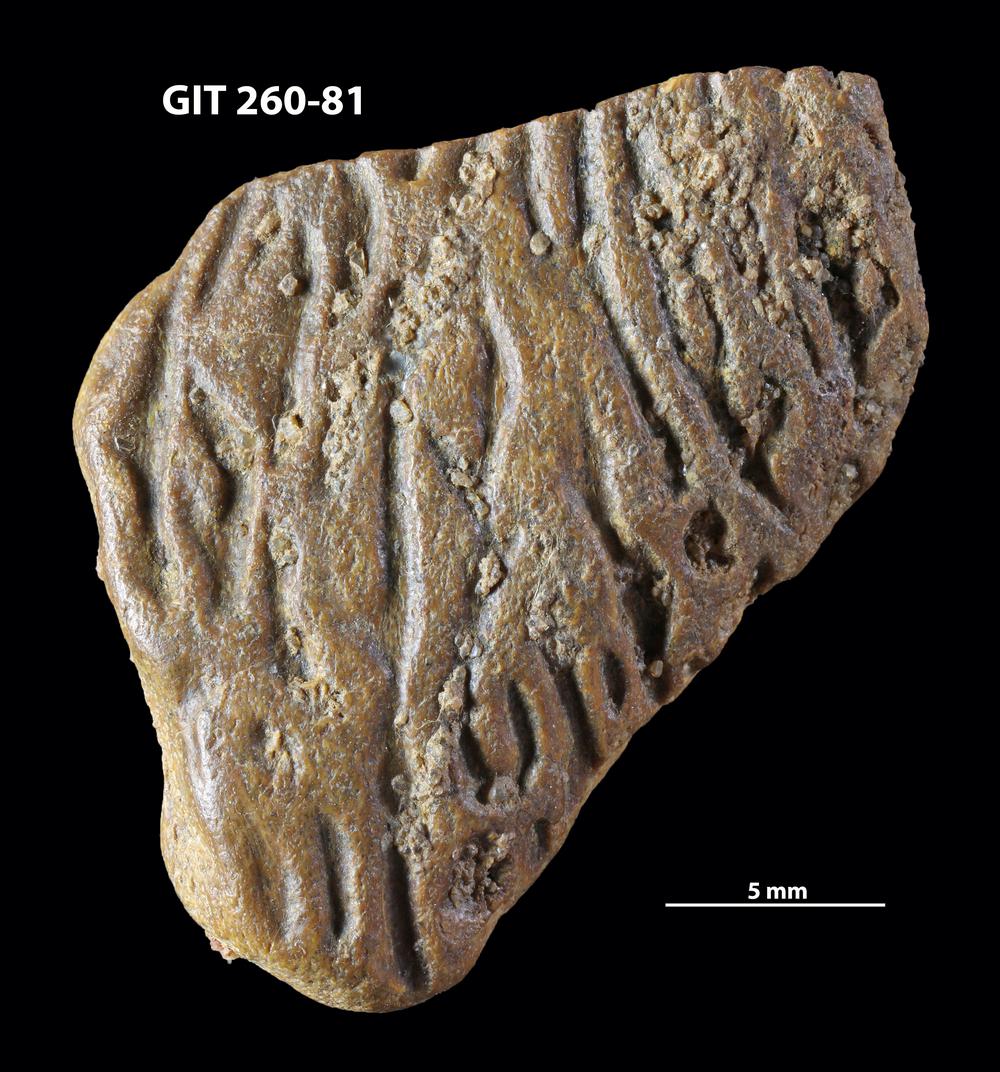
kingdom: Animalia
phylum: Chordata
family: Homostiidae
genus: Homostius
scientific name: Homostius
